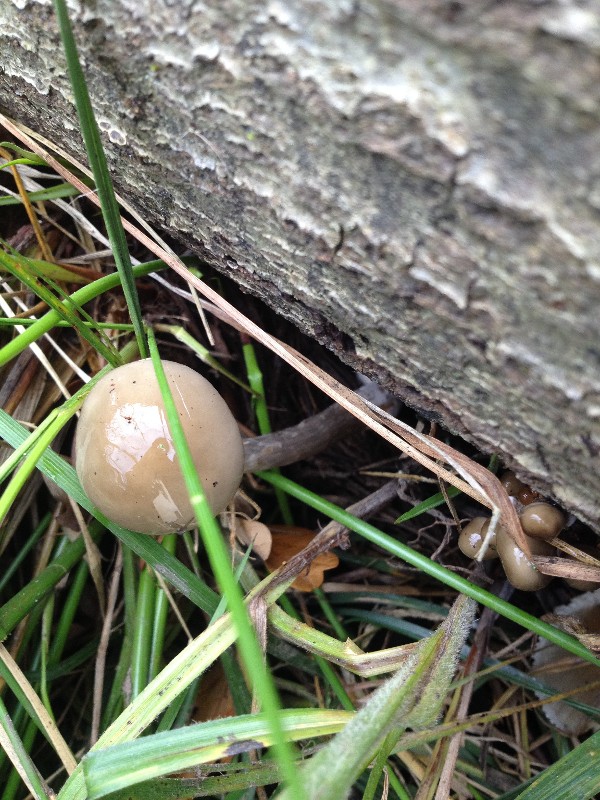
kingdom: Fungi
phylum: Basidiomycota
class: Agaricomycetes
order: Agaricales
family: Physalacriaceae
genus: Mucidula
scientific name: Mucidula mucida
